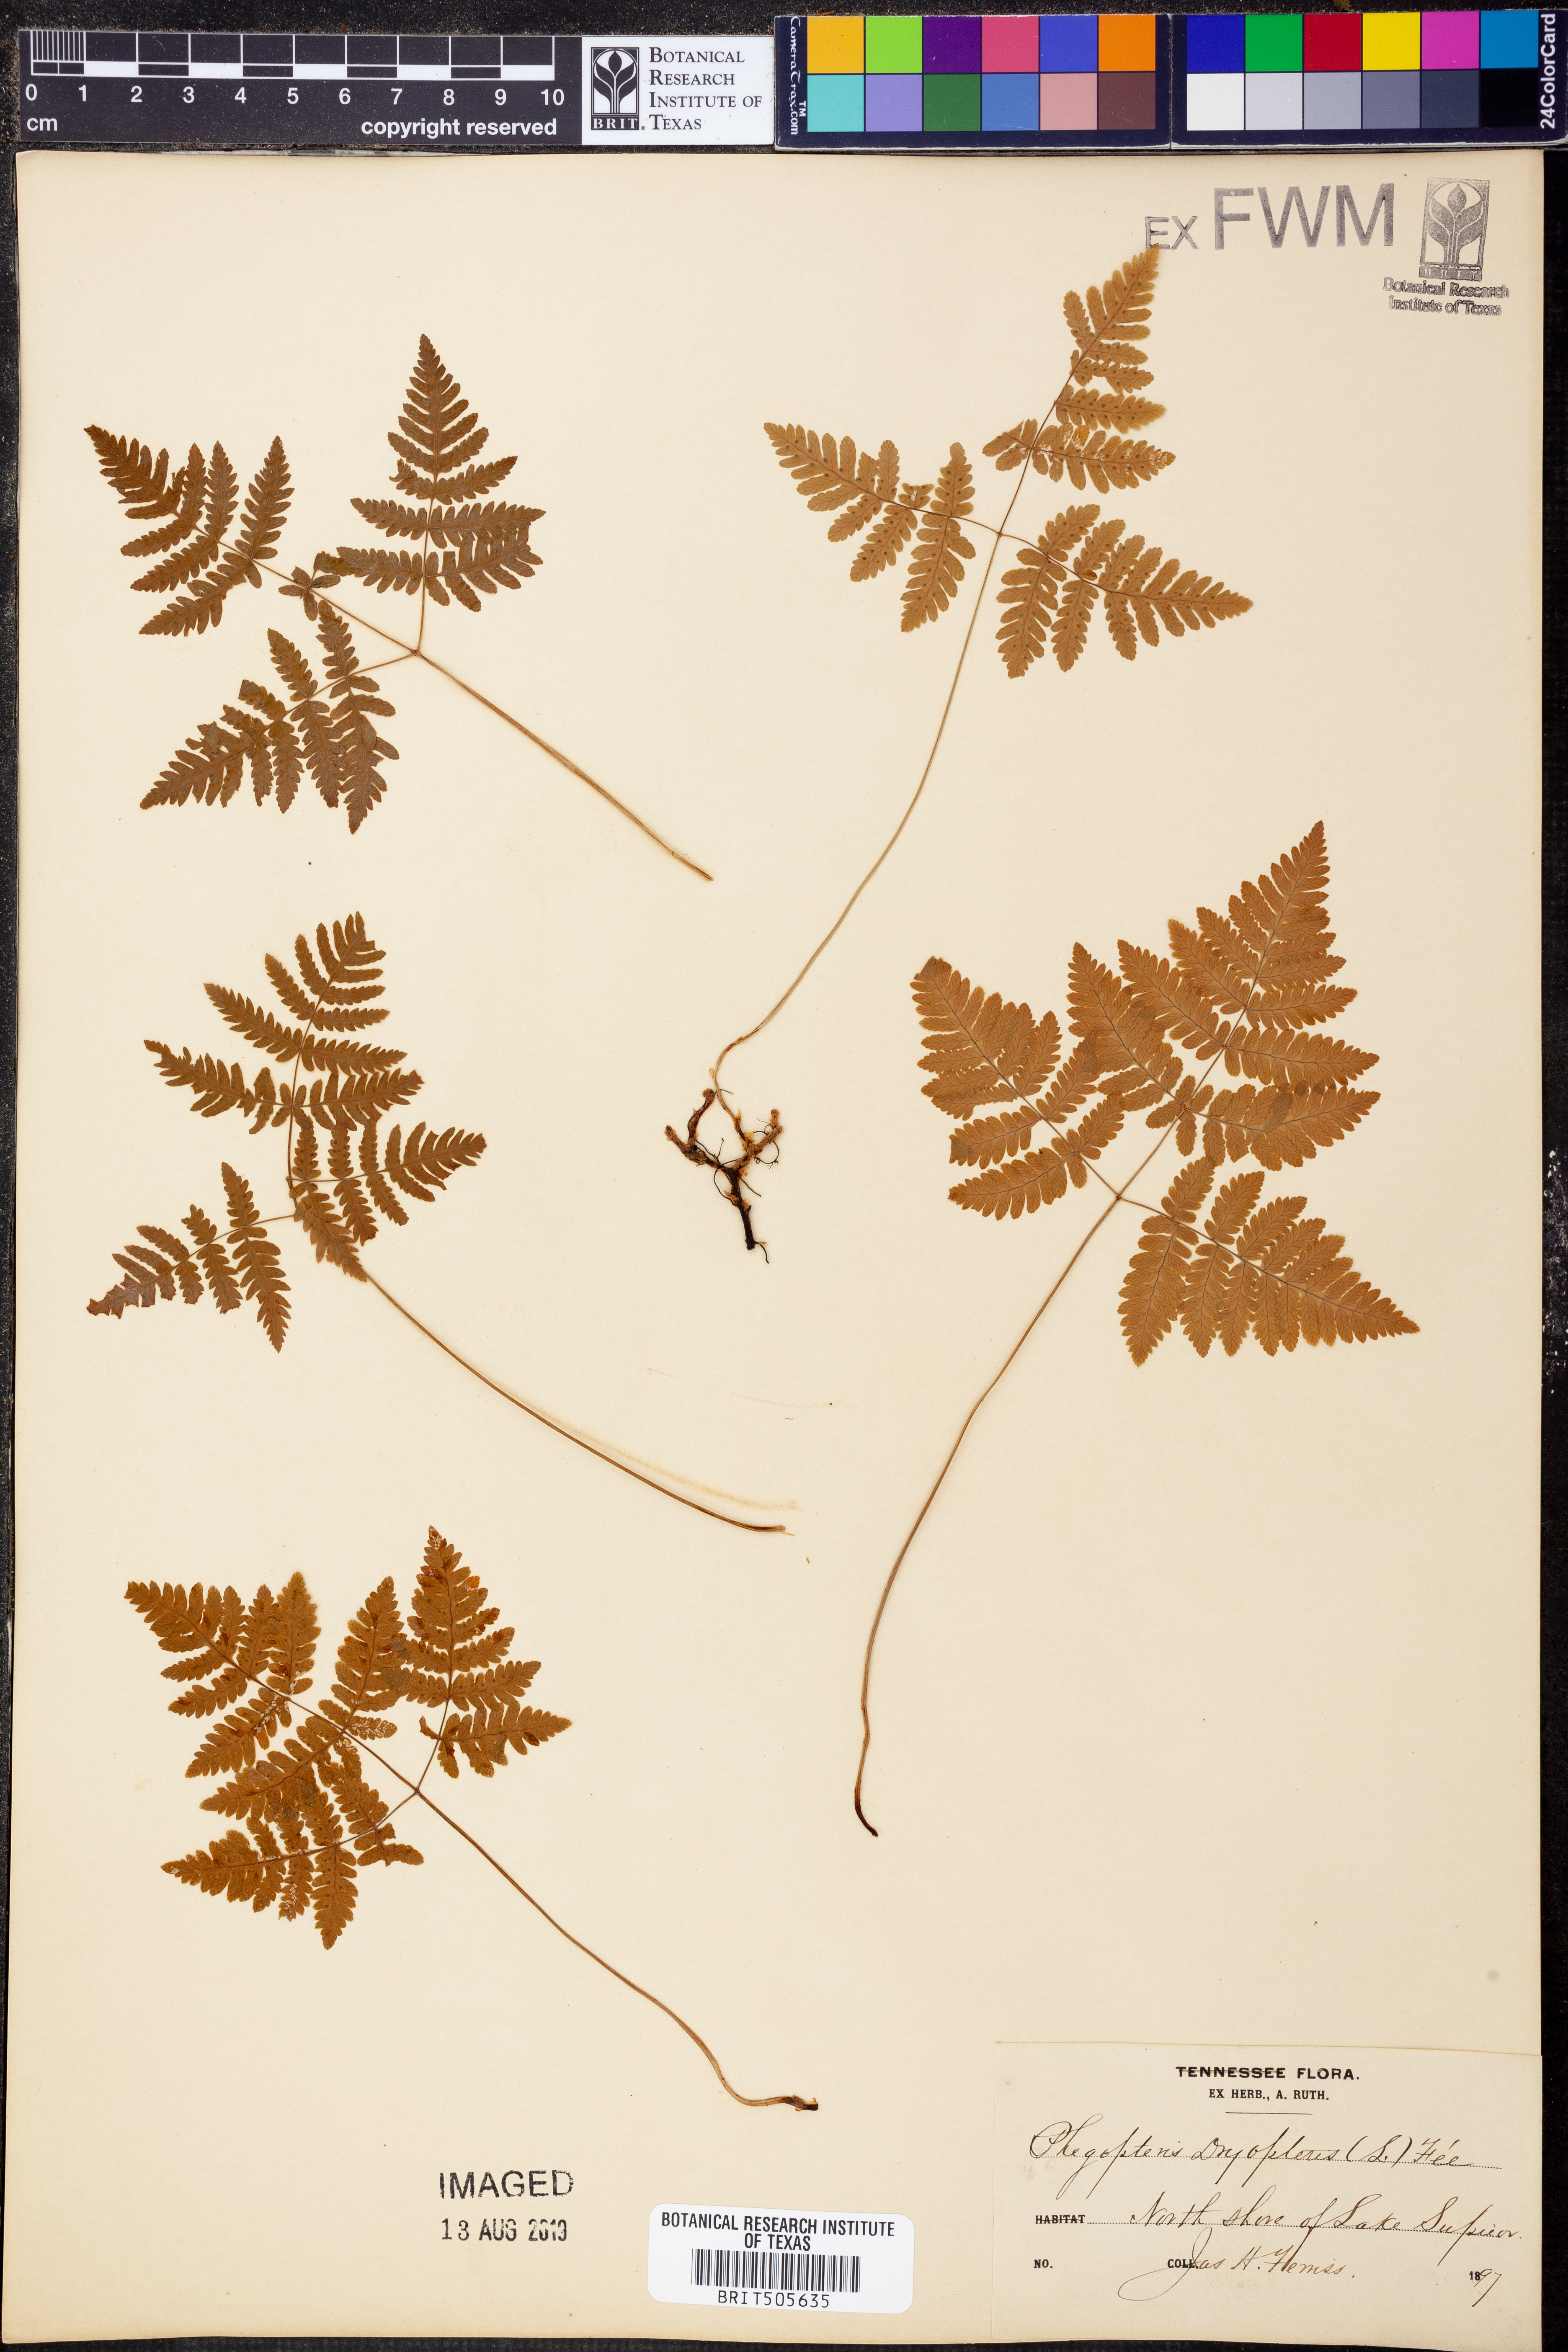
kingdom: Plantae
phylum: Tracheophyta
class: Polypodiopsida
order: Polypodiales
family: Cystopteridaceae
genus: Gymnocarpium
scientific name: Gymnocarpium dryopteris
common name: Oak fern
